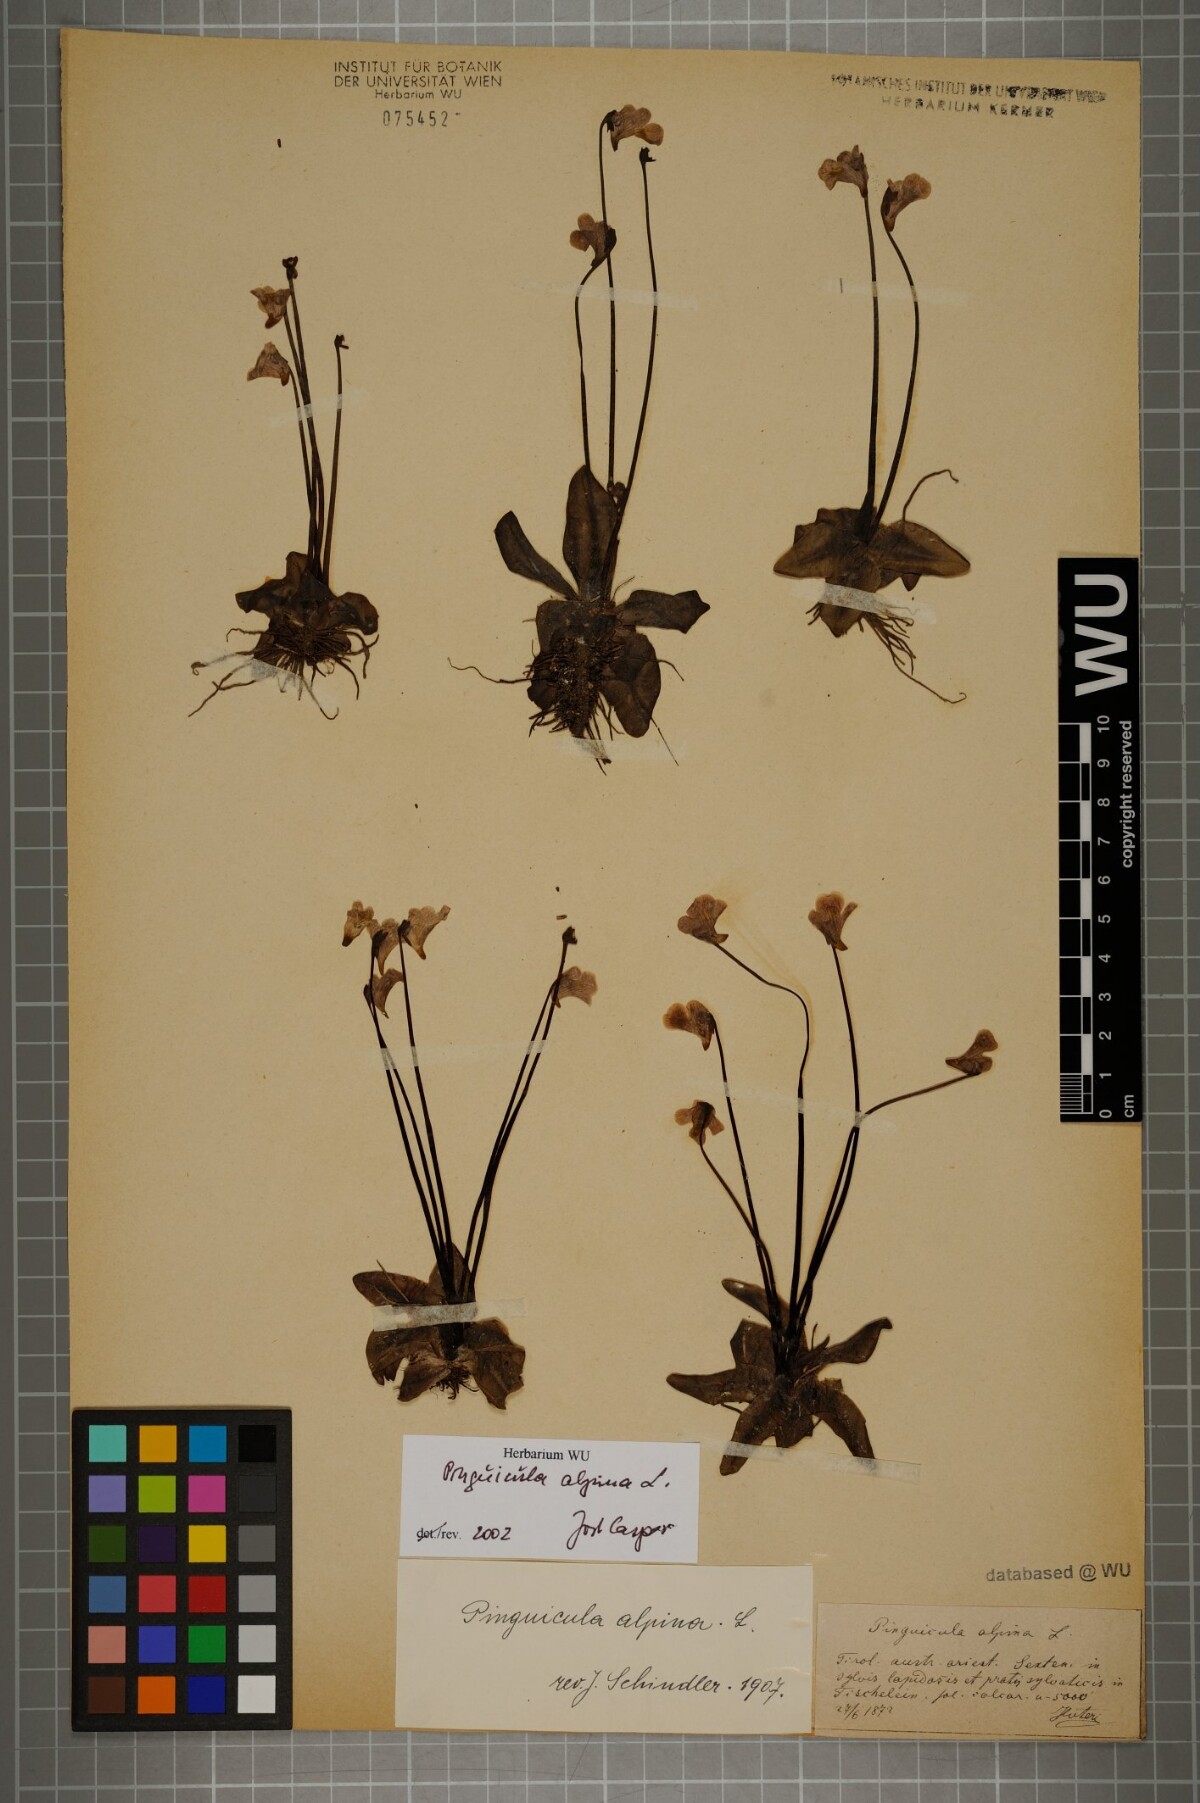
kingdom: Plantae
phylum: Tracheophyta
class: Magnoliopsida
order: Lamiales
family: Lentibulariaceae
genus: Pinguicula
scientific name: Pinguicula alpina
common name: Alpine butterwort
